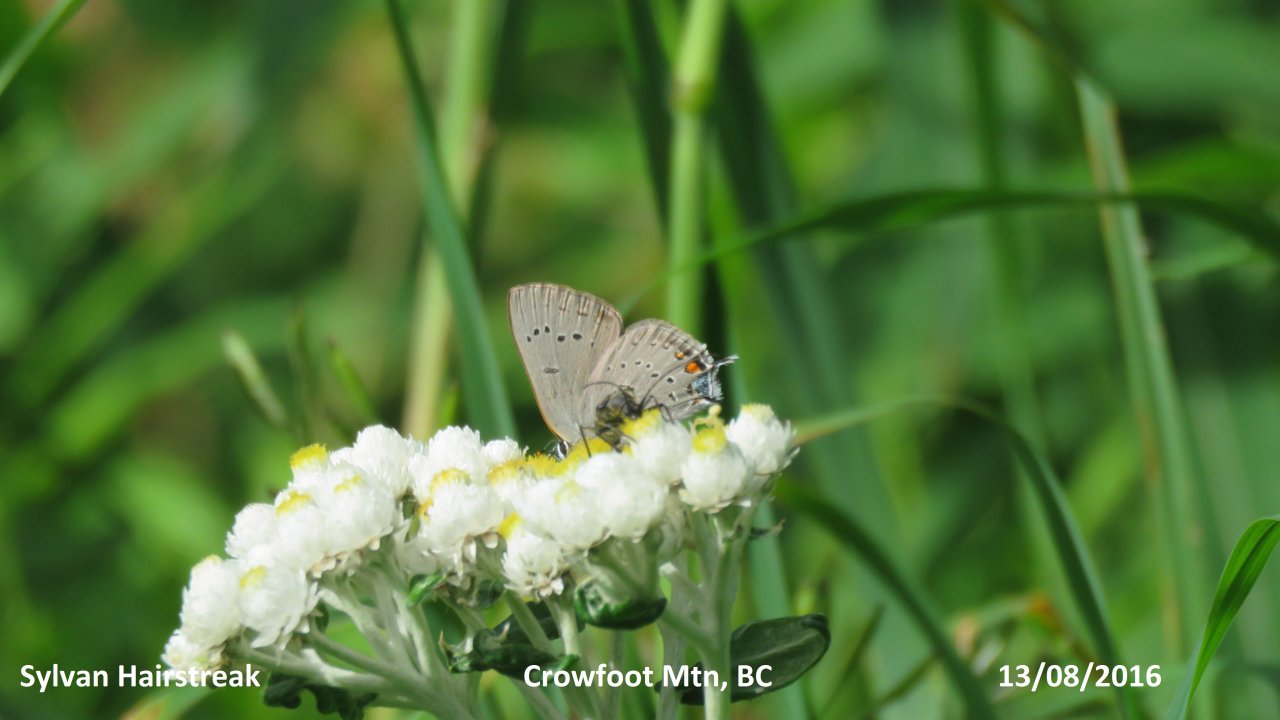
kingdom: Animalia
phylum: Arthropoda
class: Insecta
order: Lepidoptera
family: Lycaenidae
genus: Strymon
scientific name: Strymon sylvinus
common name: Sylvan Hairstreak
